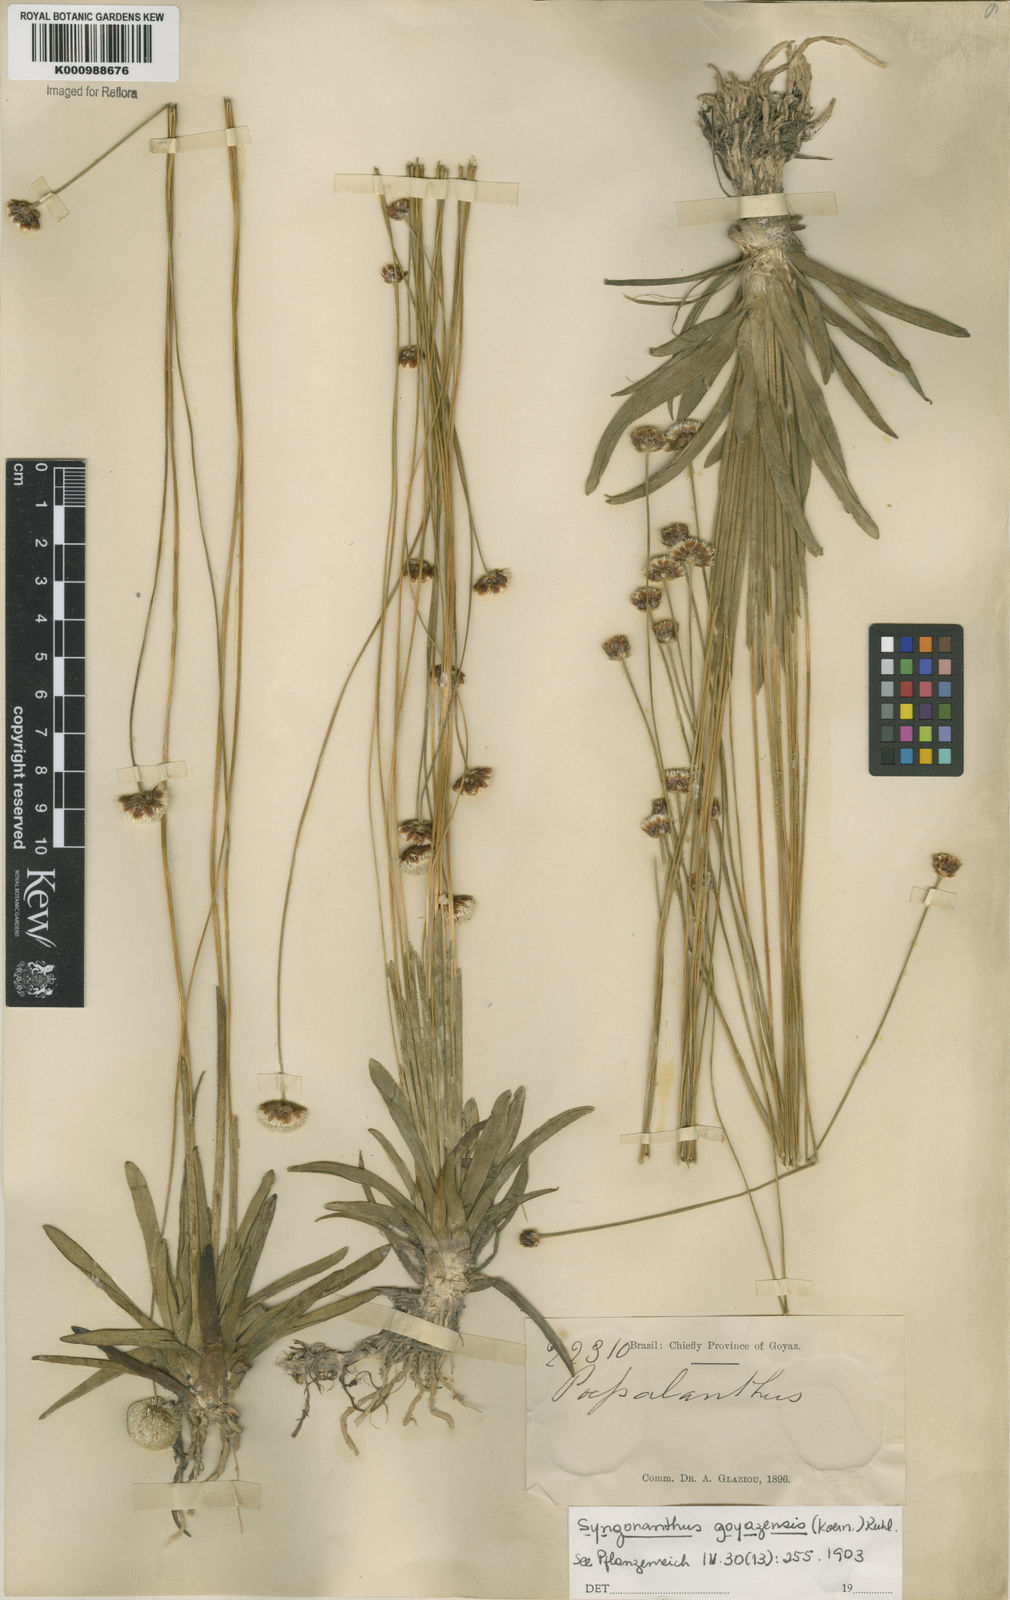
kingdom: Plantae
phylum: Tracheophyta
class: Liliopsida
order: Poales
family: Eriocaulaceae
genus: Syngonanthus
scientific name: Syngonanthus
